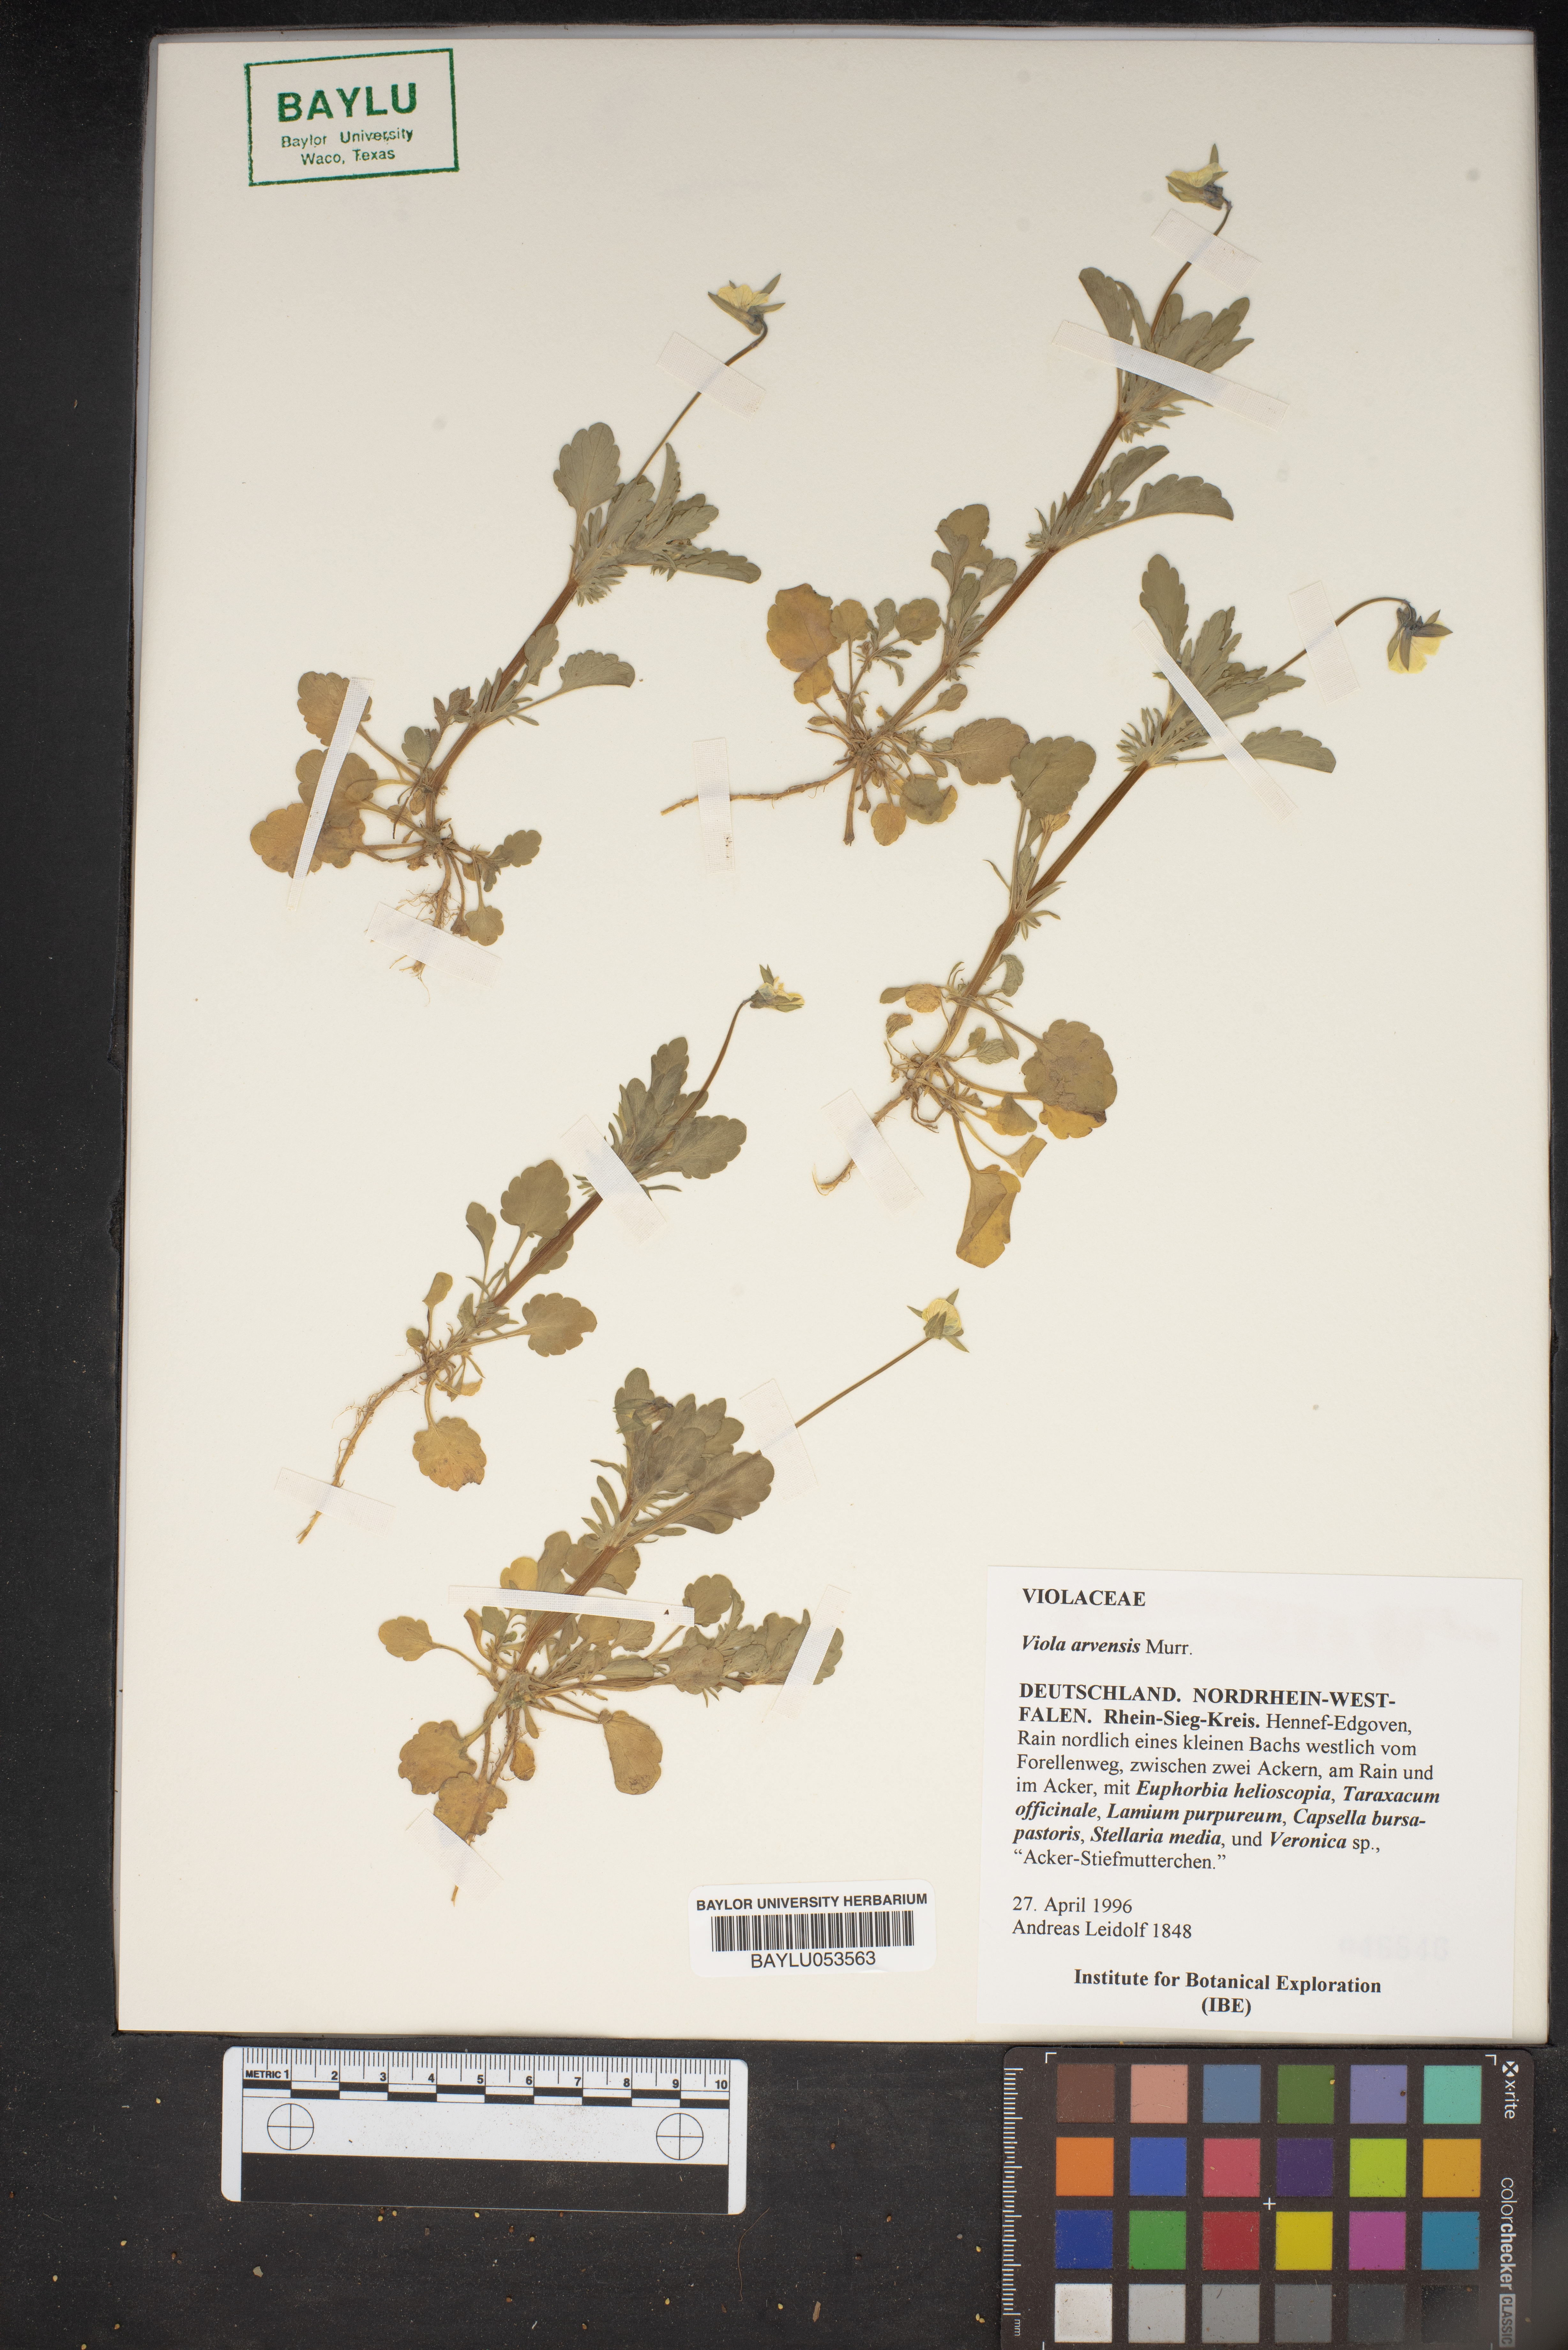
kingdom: Plantae
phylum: Tracheophyta
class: Magnoliopsida
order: Malpighiales
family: Violaceae
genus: Viola
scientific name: Viola arvensis
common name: Field pansy
